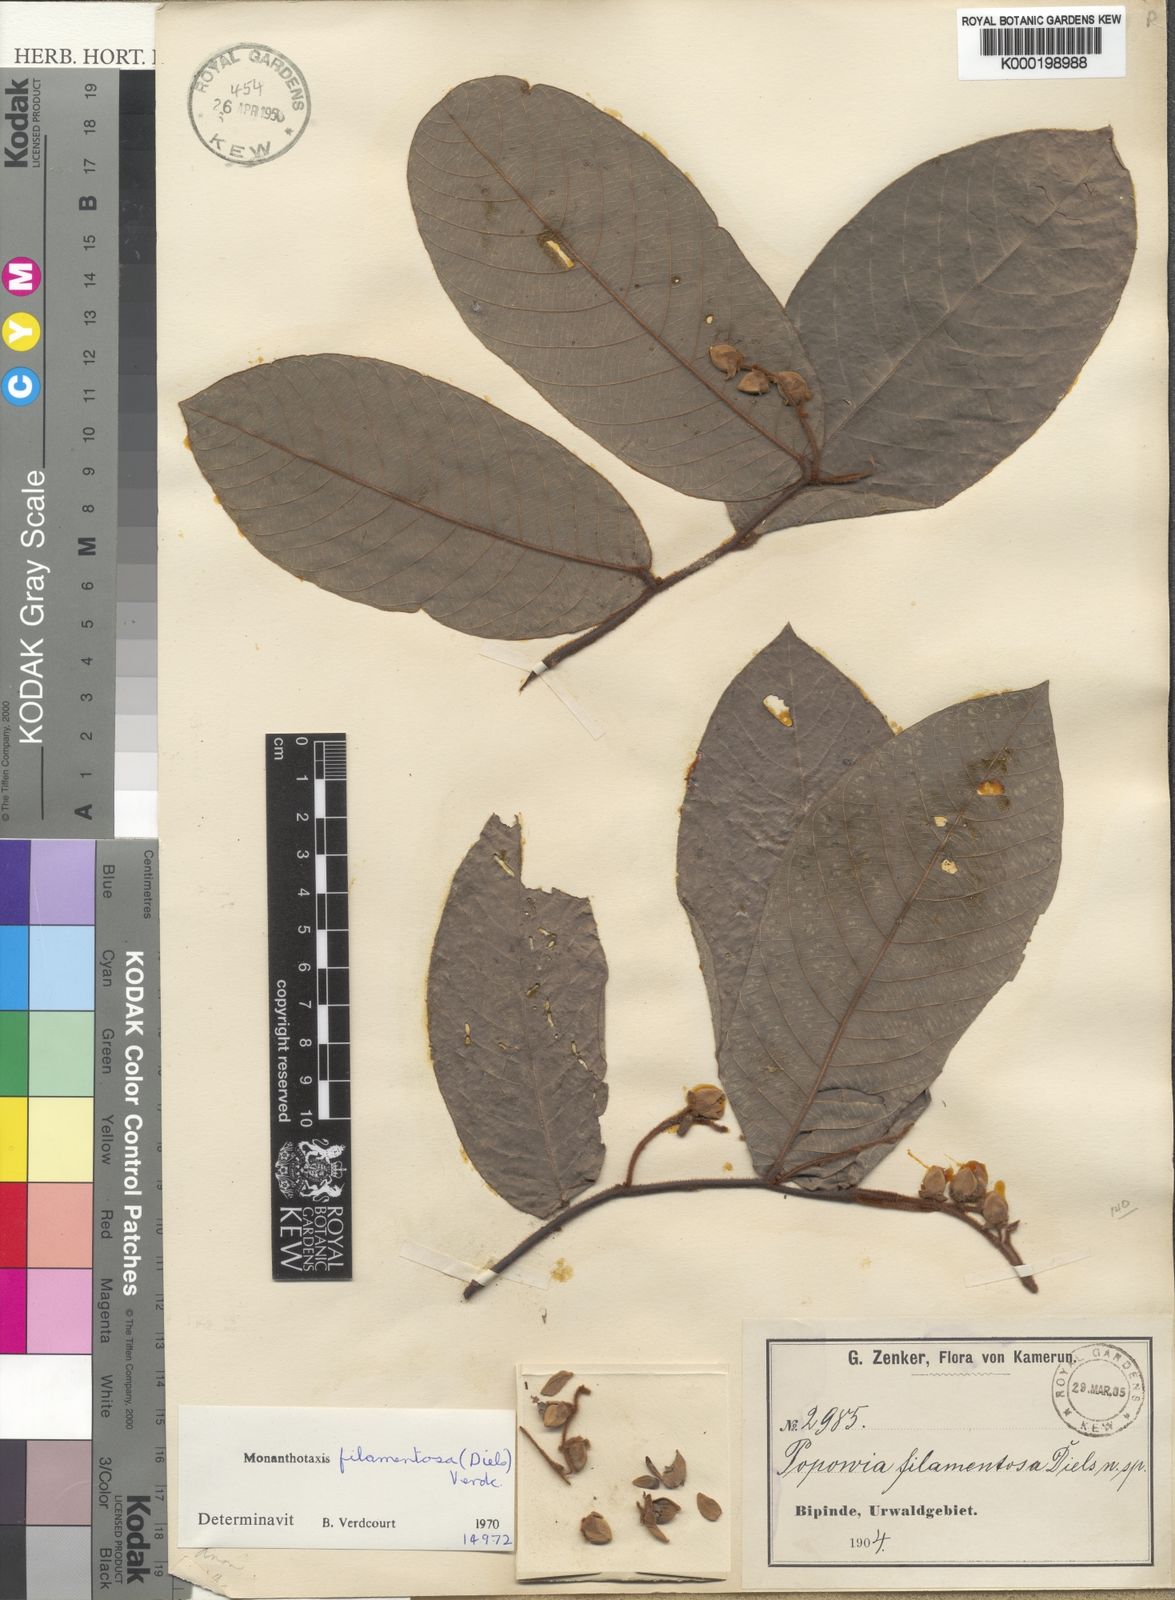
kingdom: Plantae
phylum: Tracheophyta
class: Magnoliopsida
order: Magnoliales
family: Annonaceae
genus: Monanthotaxis
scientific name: Monanthotaxis filamentosa
